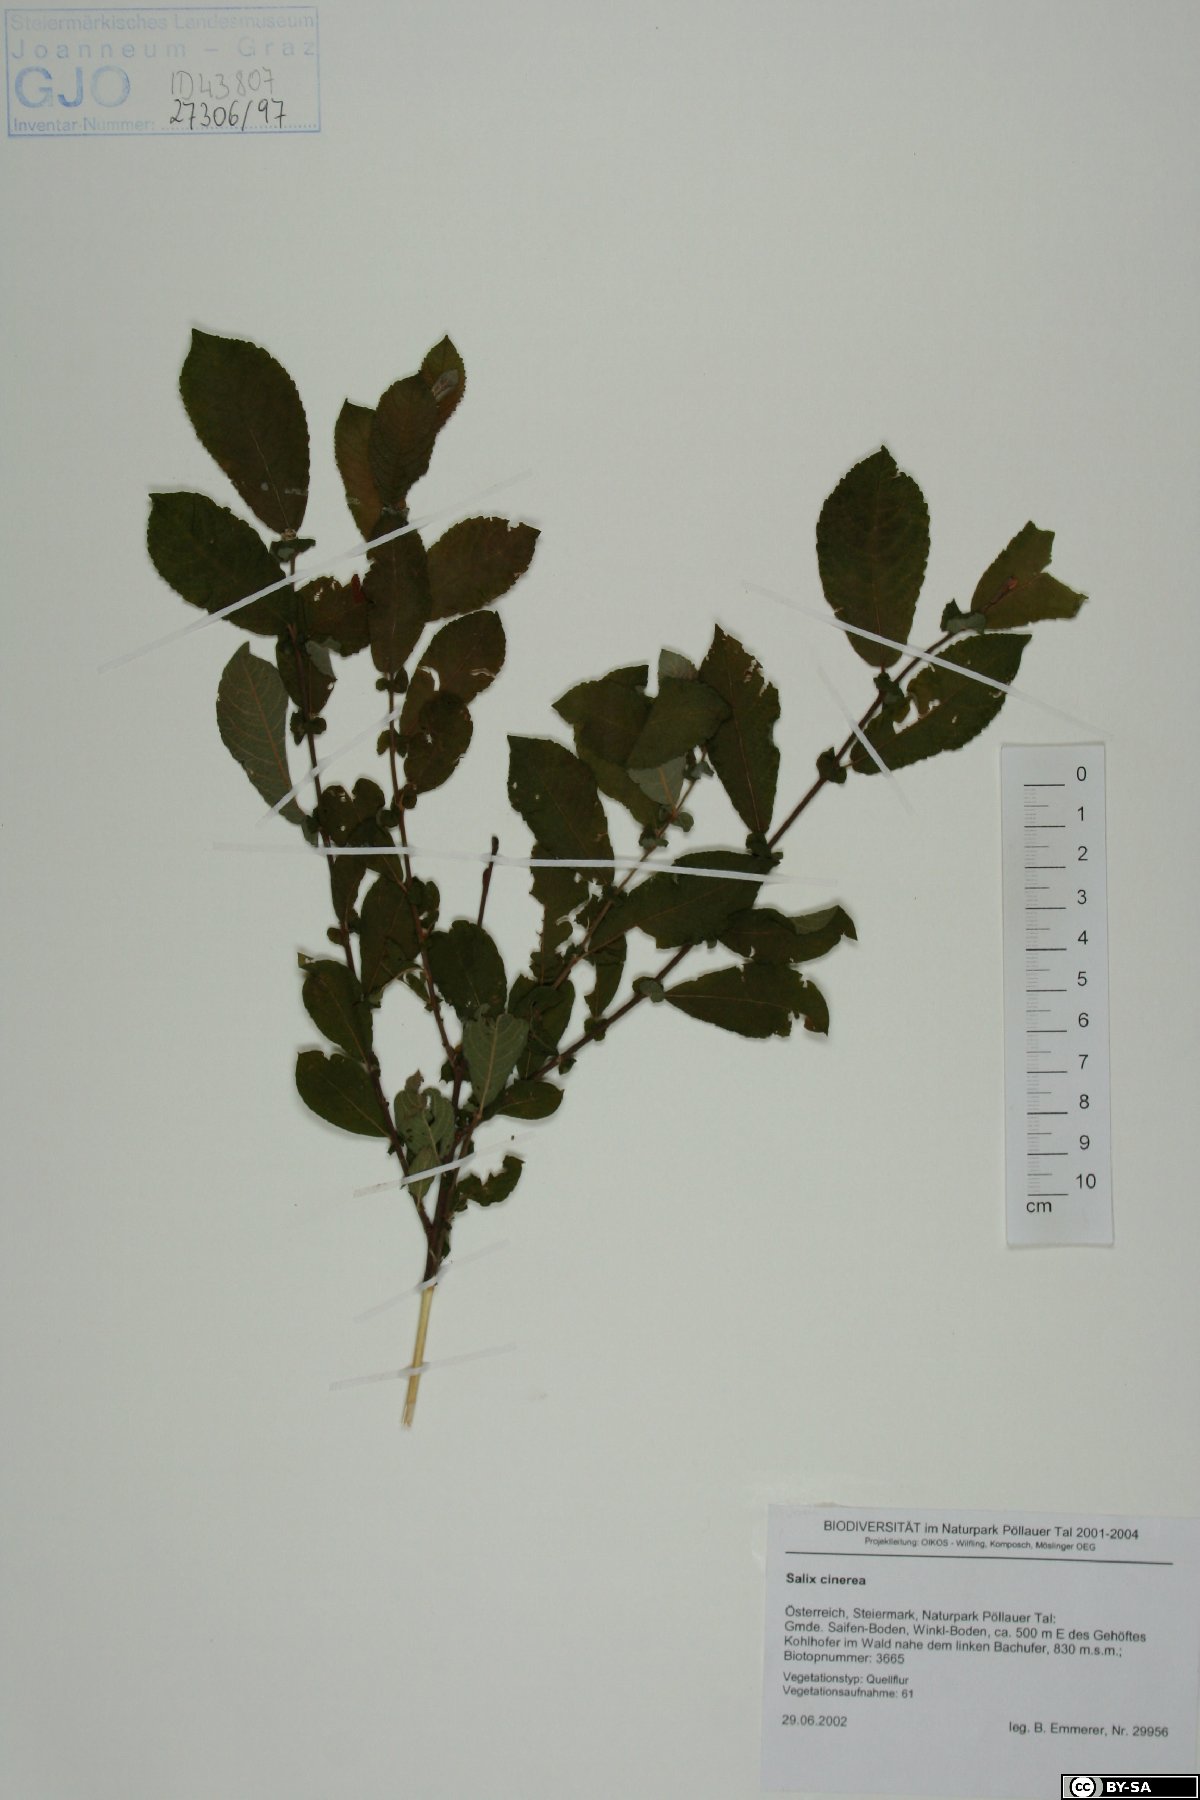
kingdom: Plantae
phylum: Tracheophyta
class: Magnoliopsida
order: Malpighiales
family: Salicaceae
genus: Salix
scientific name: Salix cinerea
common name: Common sallow
